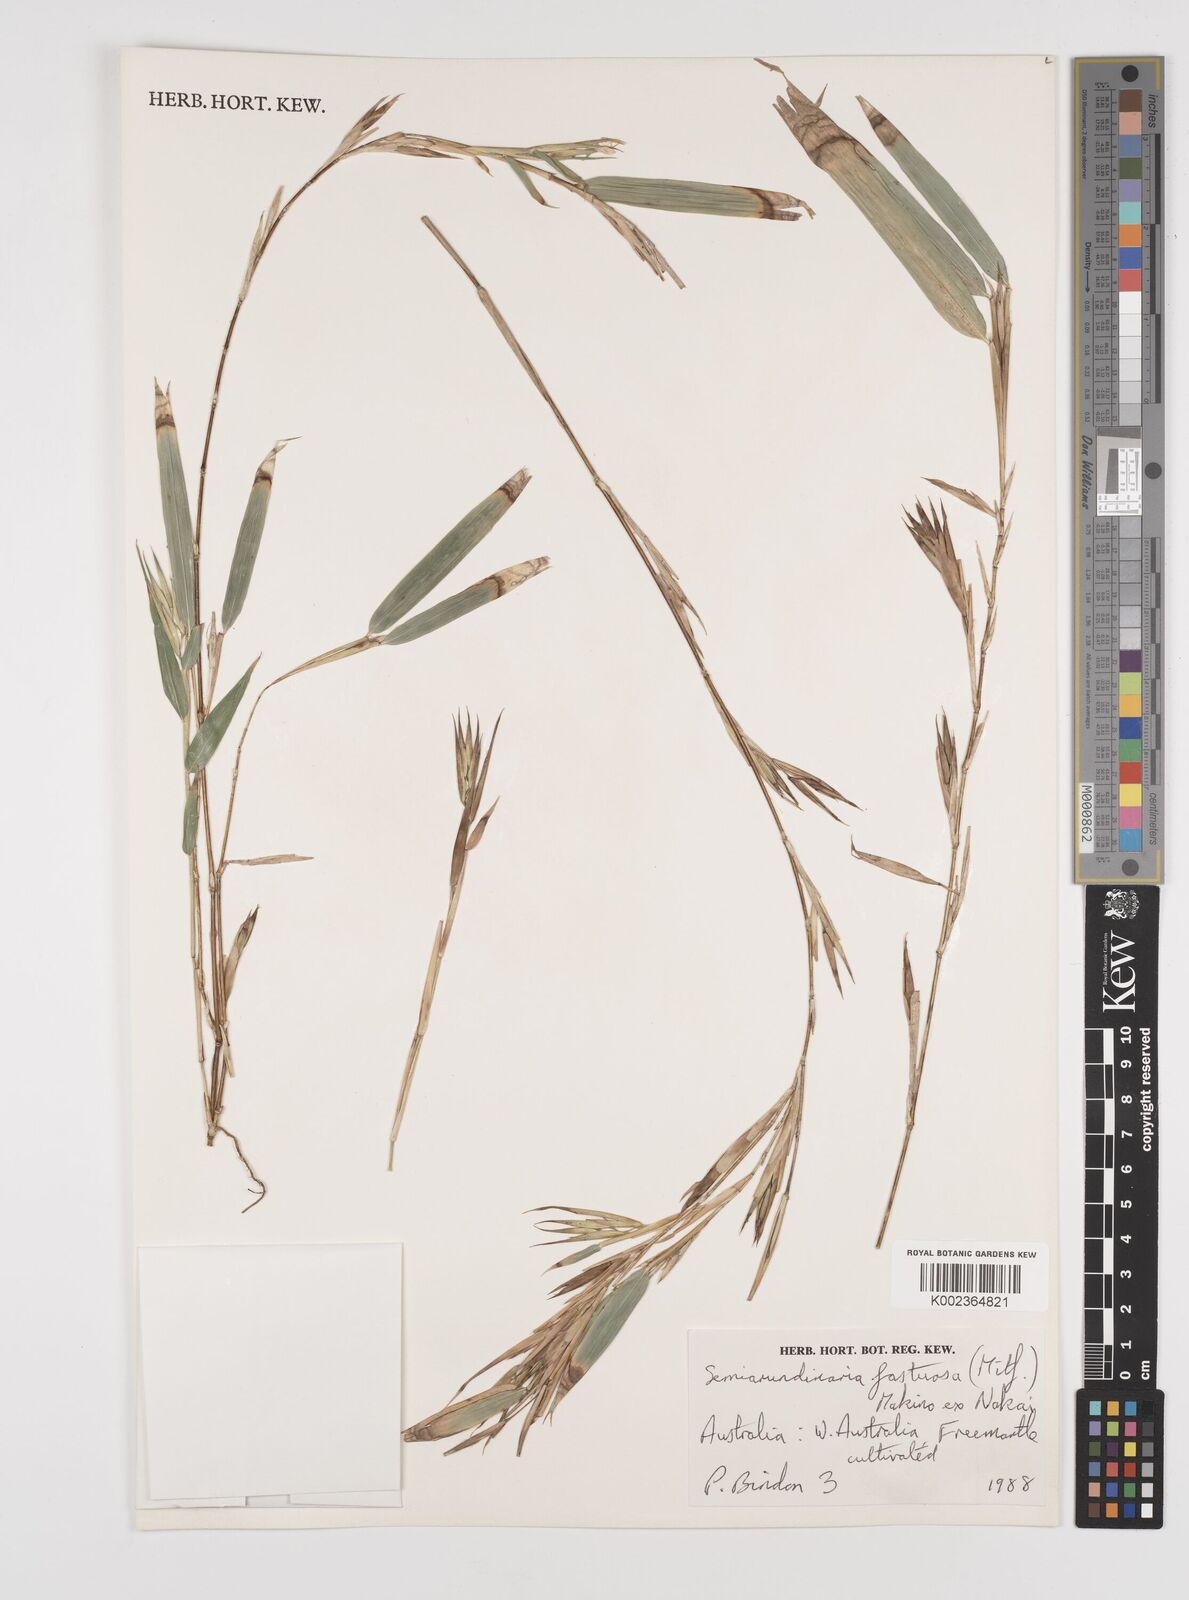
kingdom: Plantae
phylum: Tracheophyta
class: Liliopsida
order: Poales
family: Poaceae
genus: Semiarundinaria
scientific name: Semiarundinaria fastuosa
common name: Narihira bamboo
